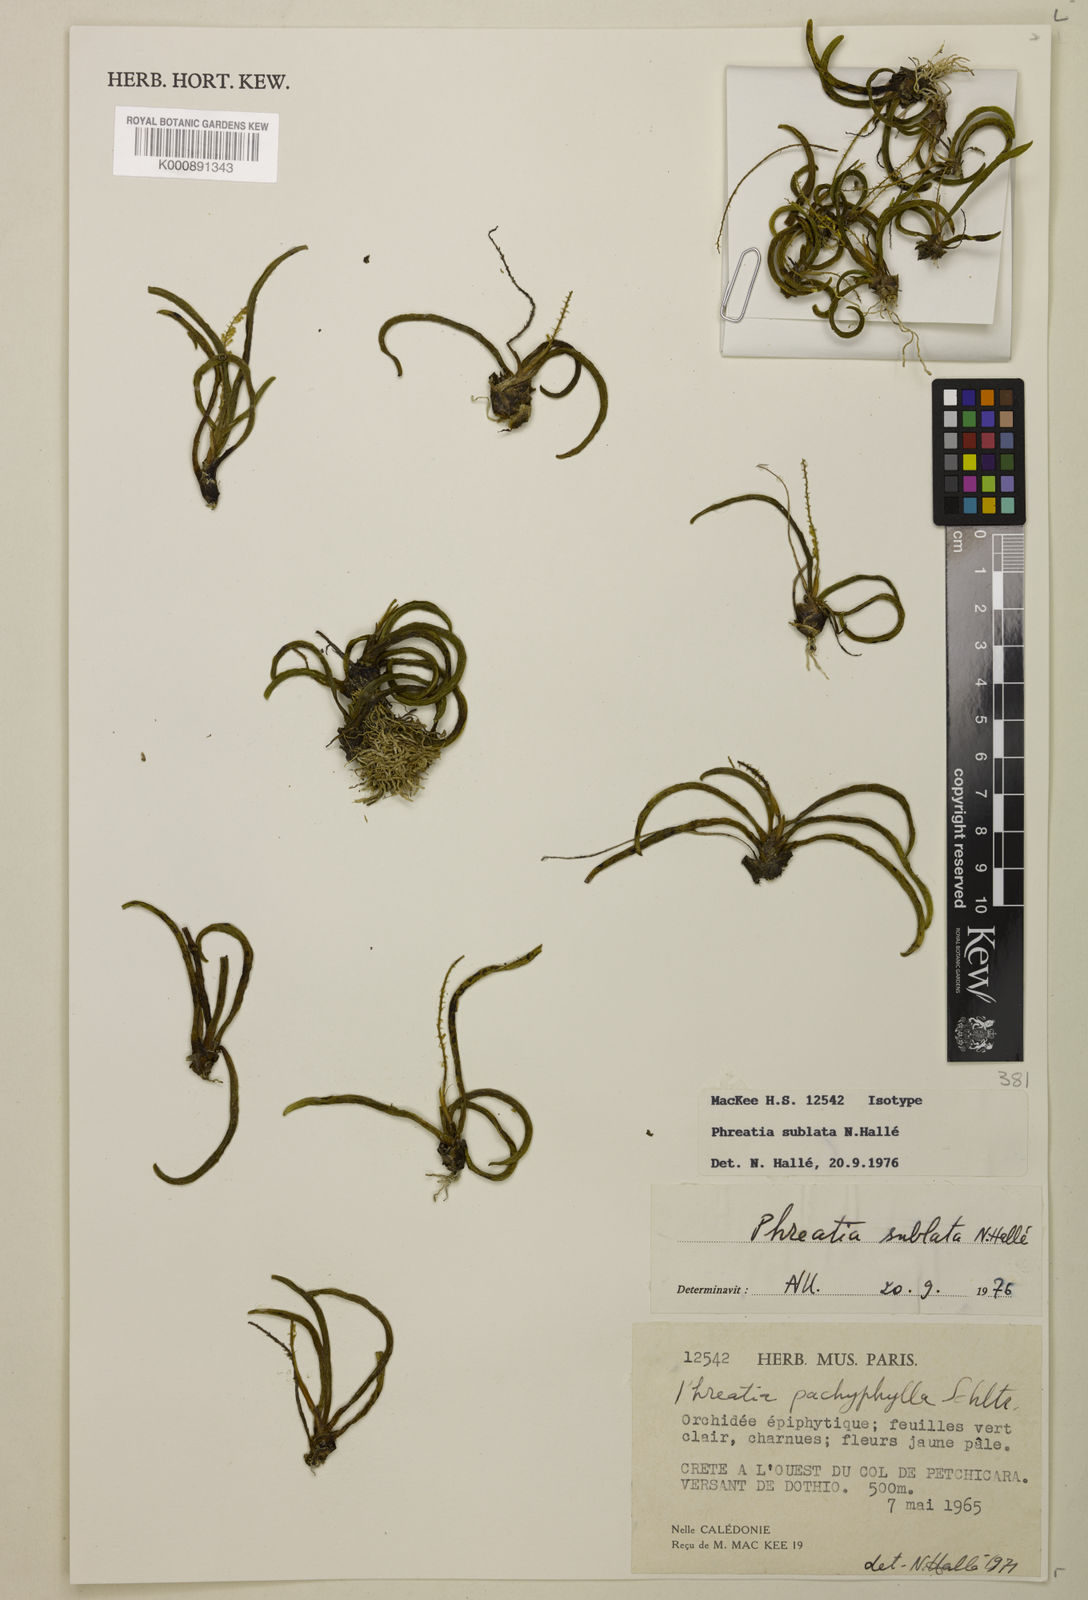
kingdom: Plantae
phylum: Tracheophyta
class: Liliopsida
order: Asparagales
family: Orchidaceae
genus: Phreatia
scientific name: Phreatia
